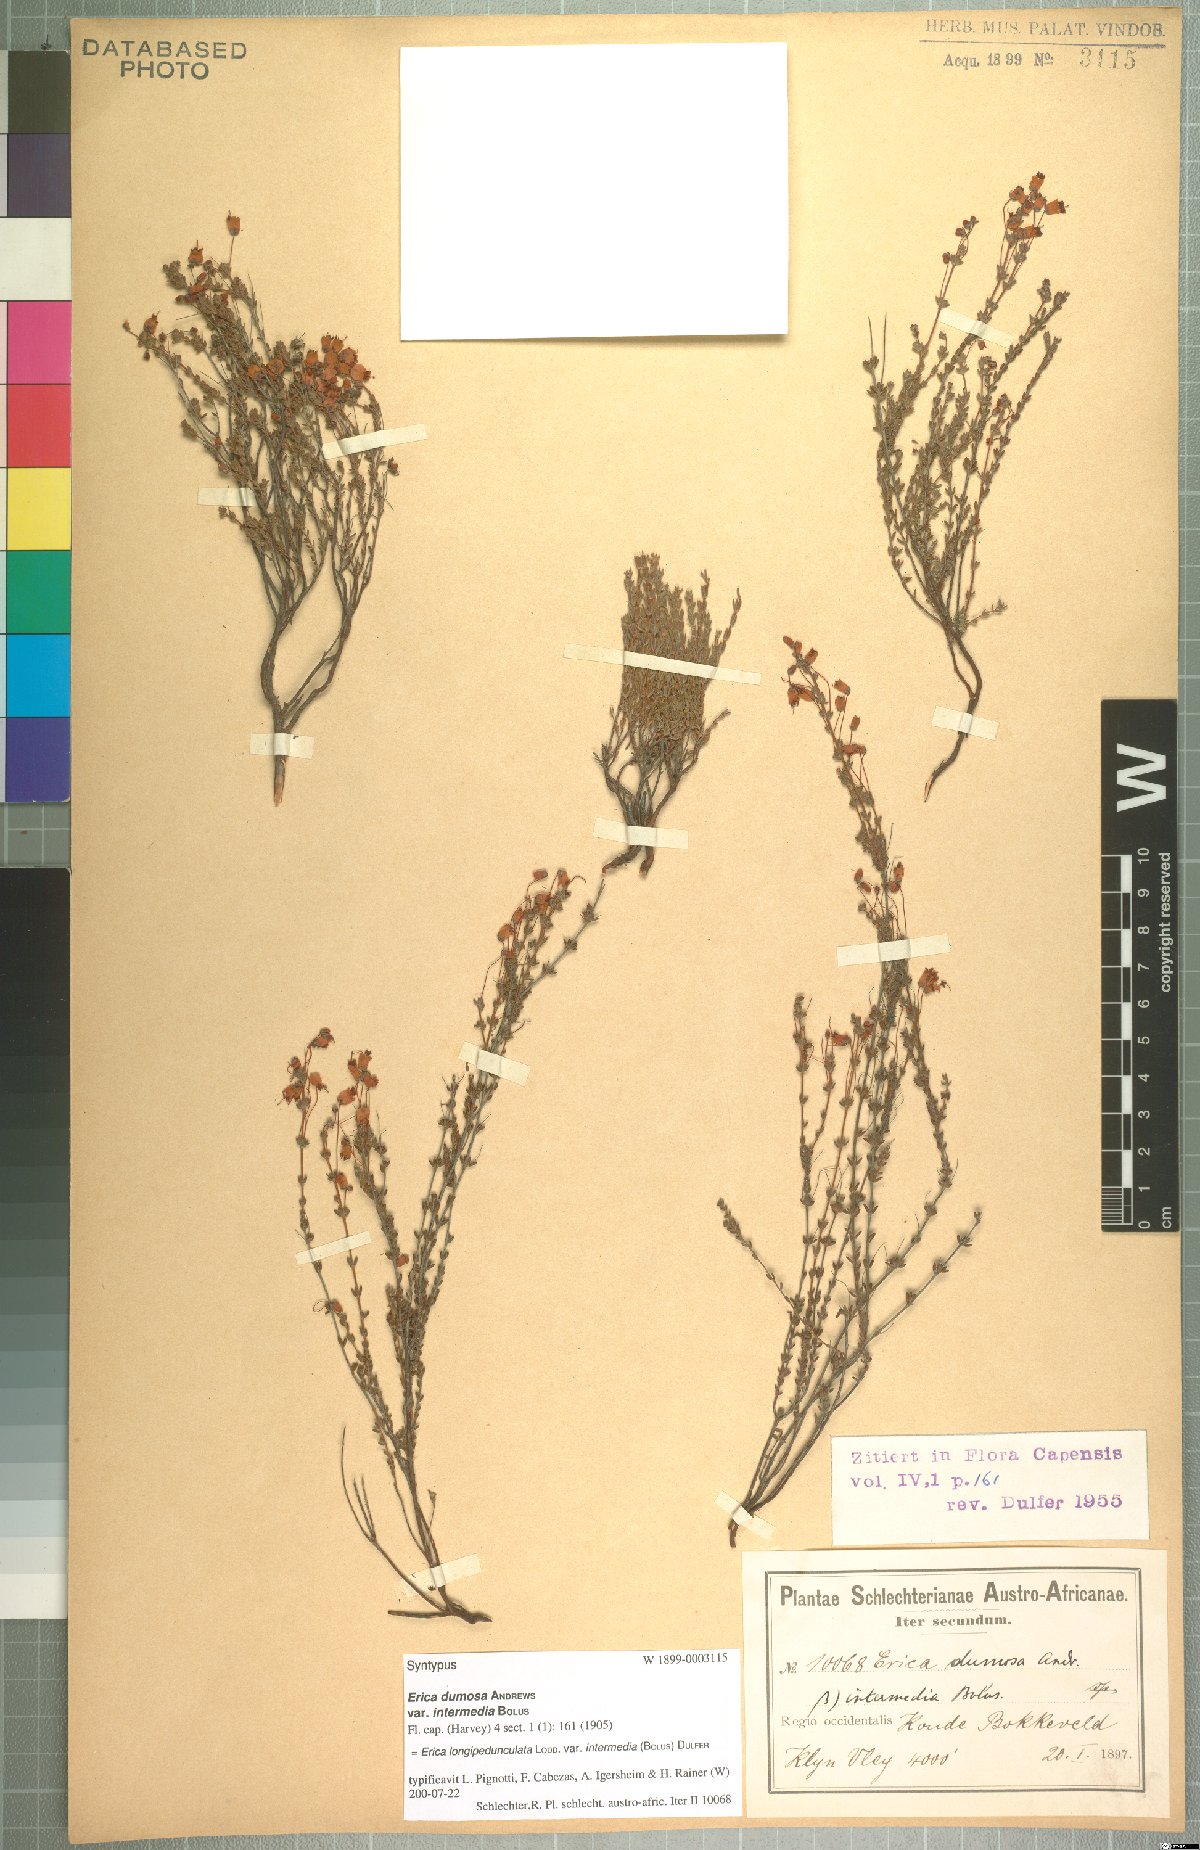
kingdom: Plantae
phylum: Tracheophyta
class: Magnoliopsida
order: Ericales
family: Ericaceae
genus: Erica
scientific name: Erica longipedunculata
